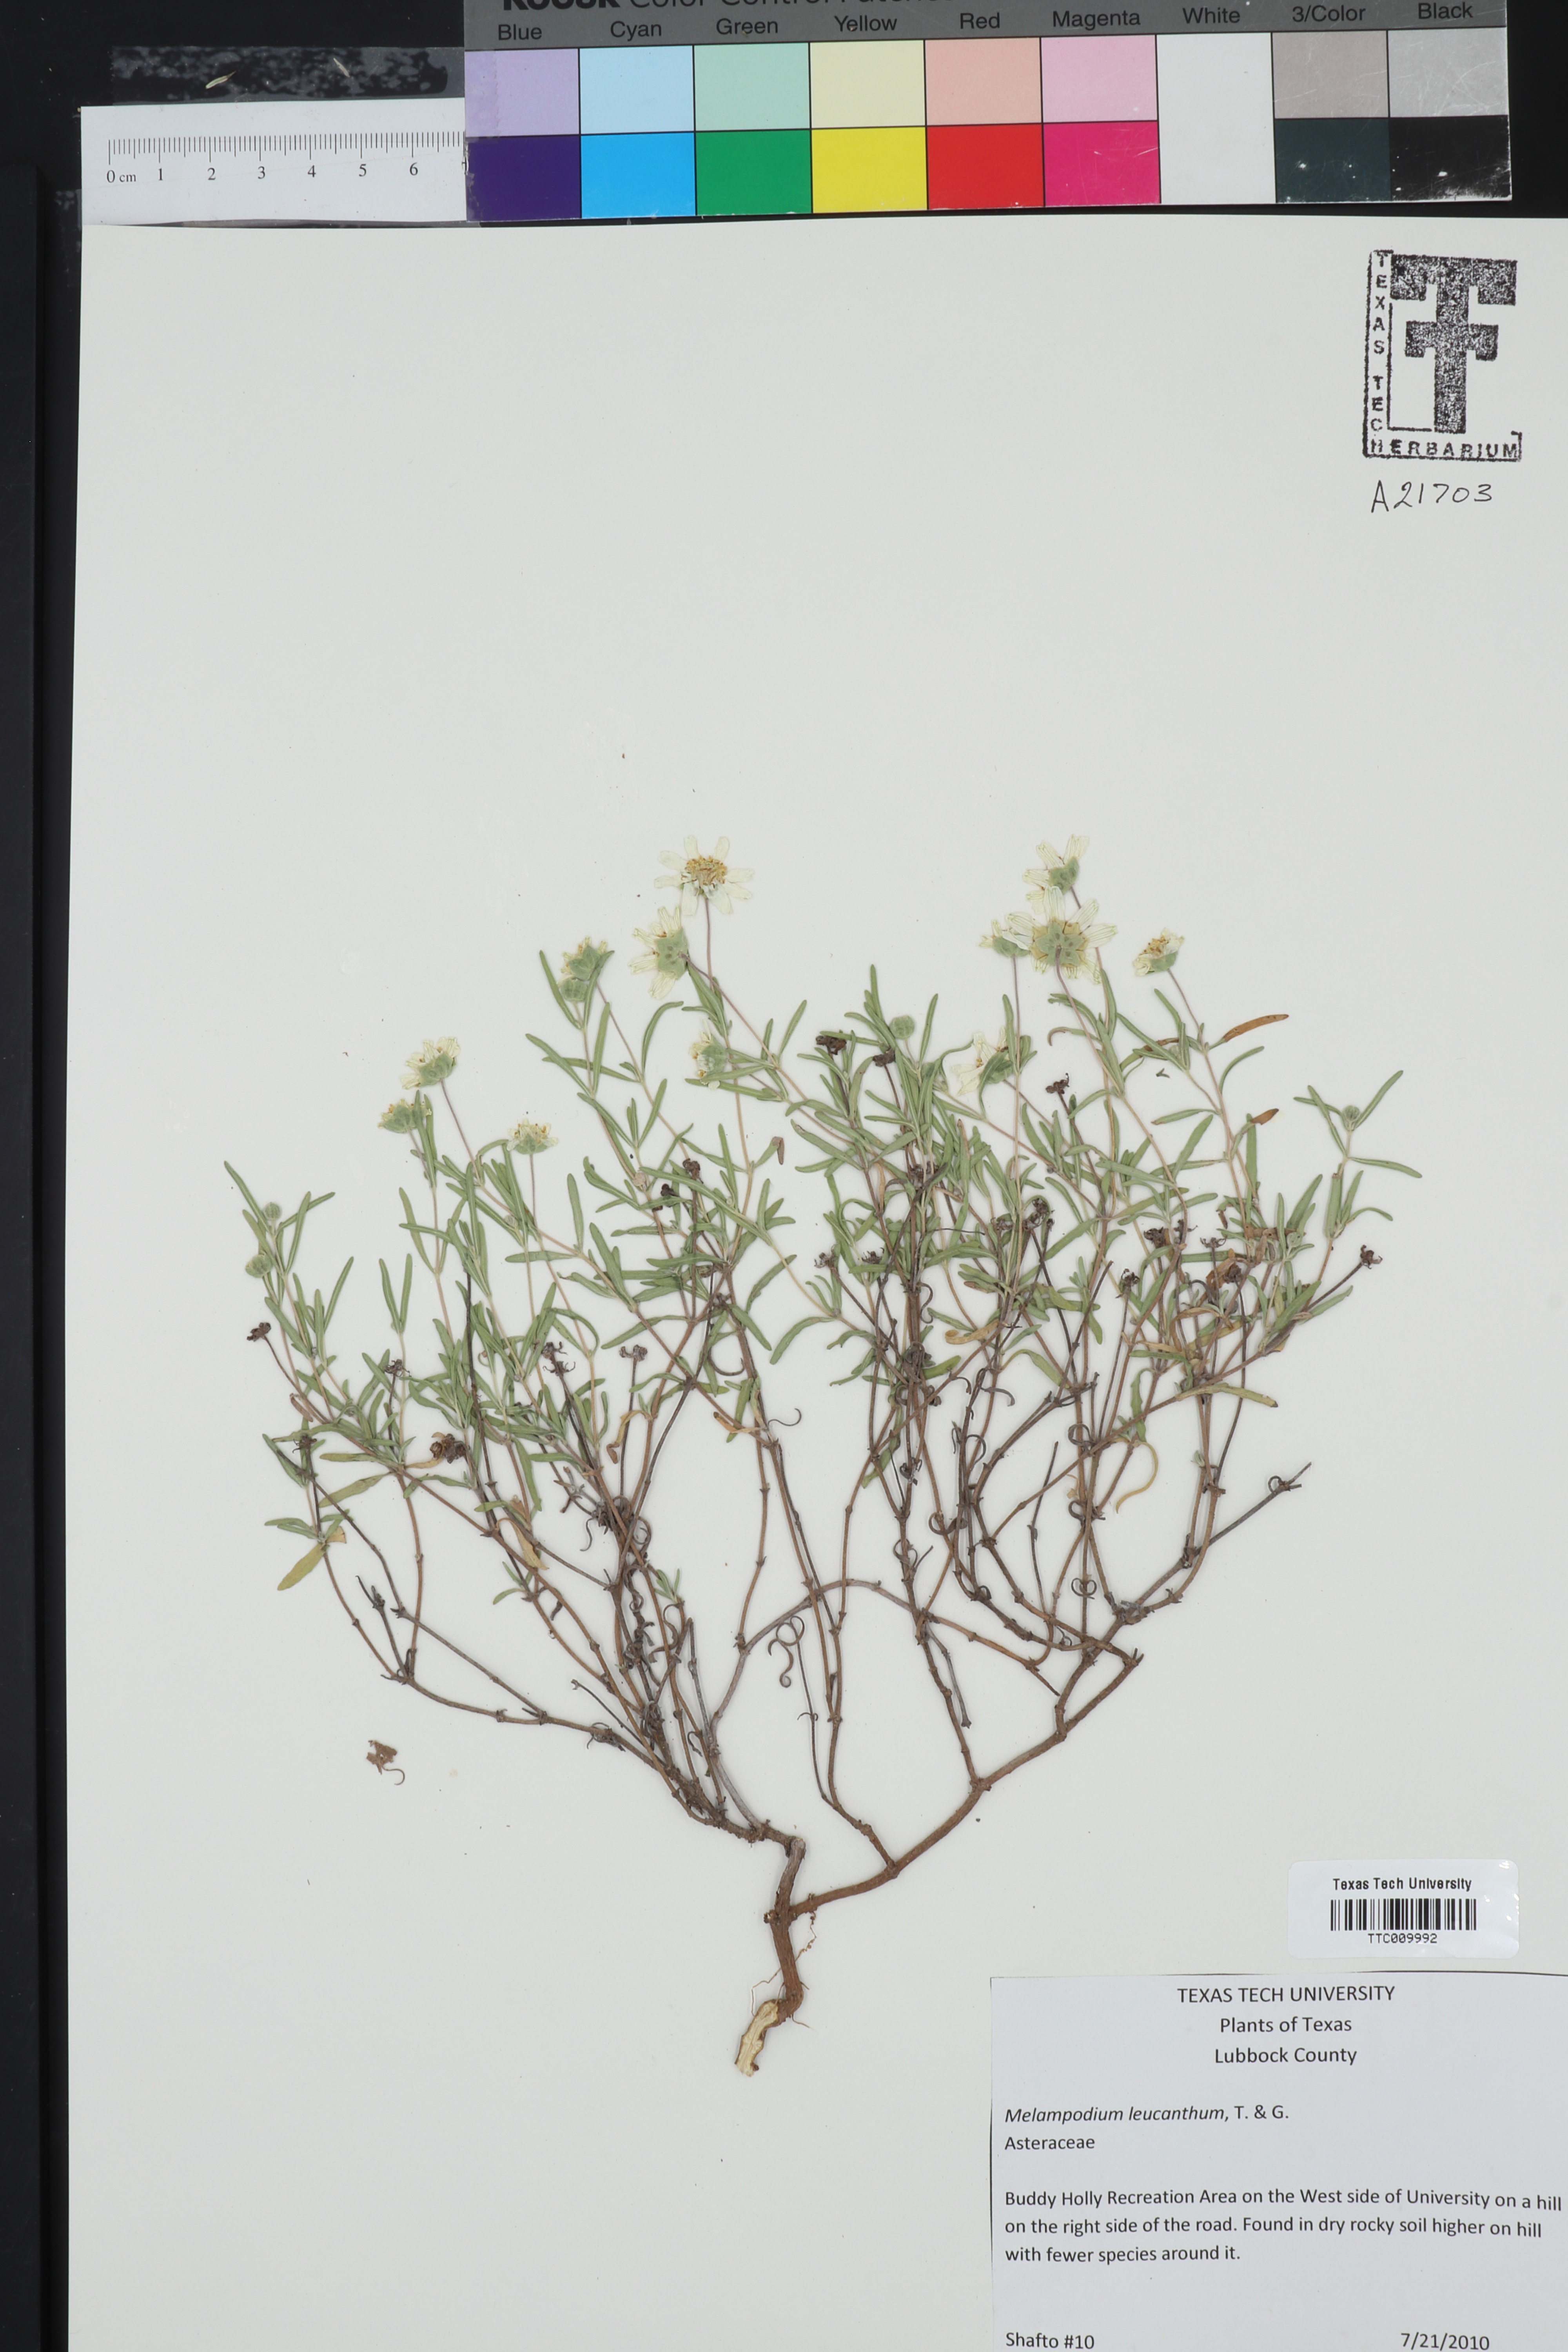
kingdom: Plantae
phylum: Tracheophyta
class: Magnoliopsida
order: Asterales
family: Asteraceae
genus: Melampodium
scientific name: Melampodium leucanthum
